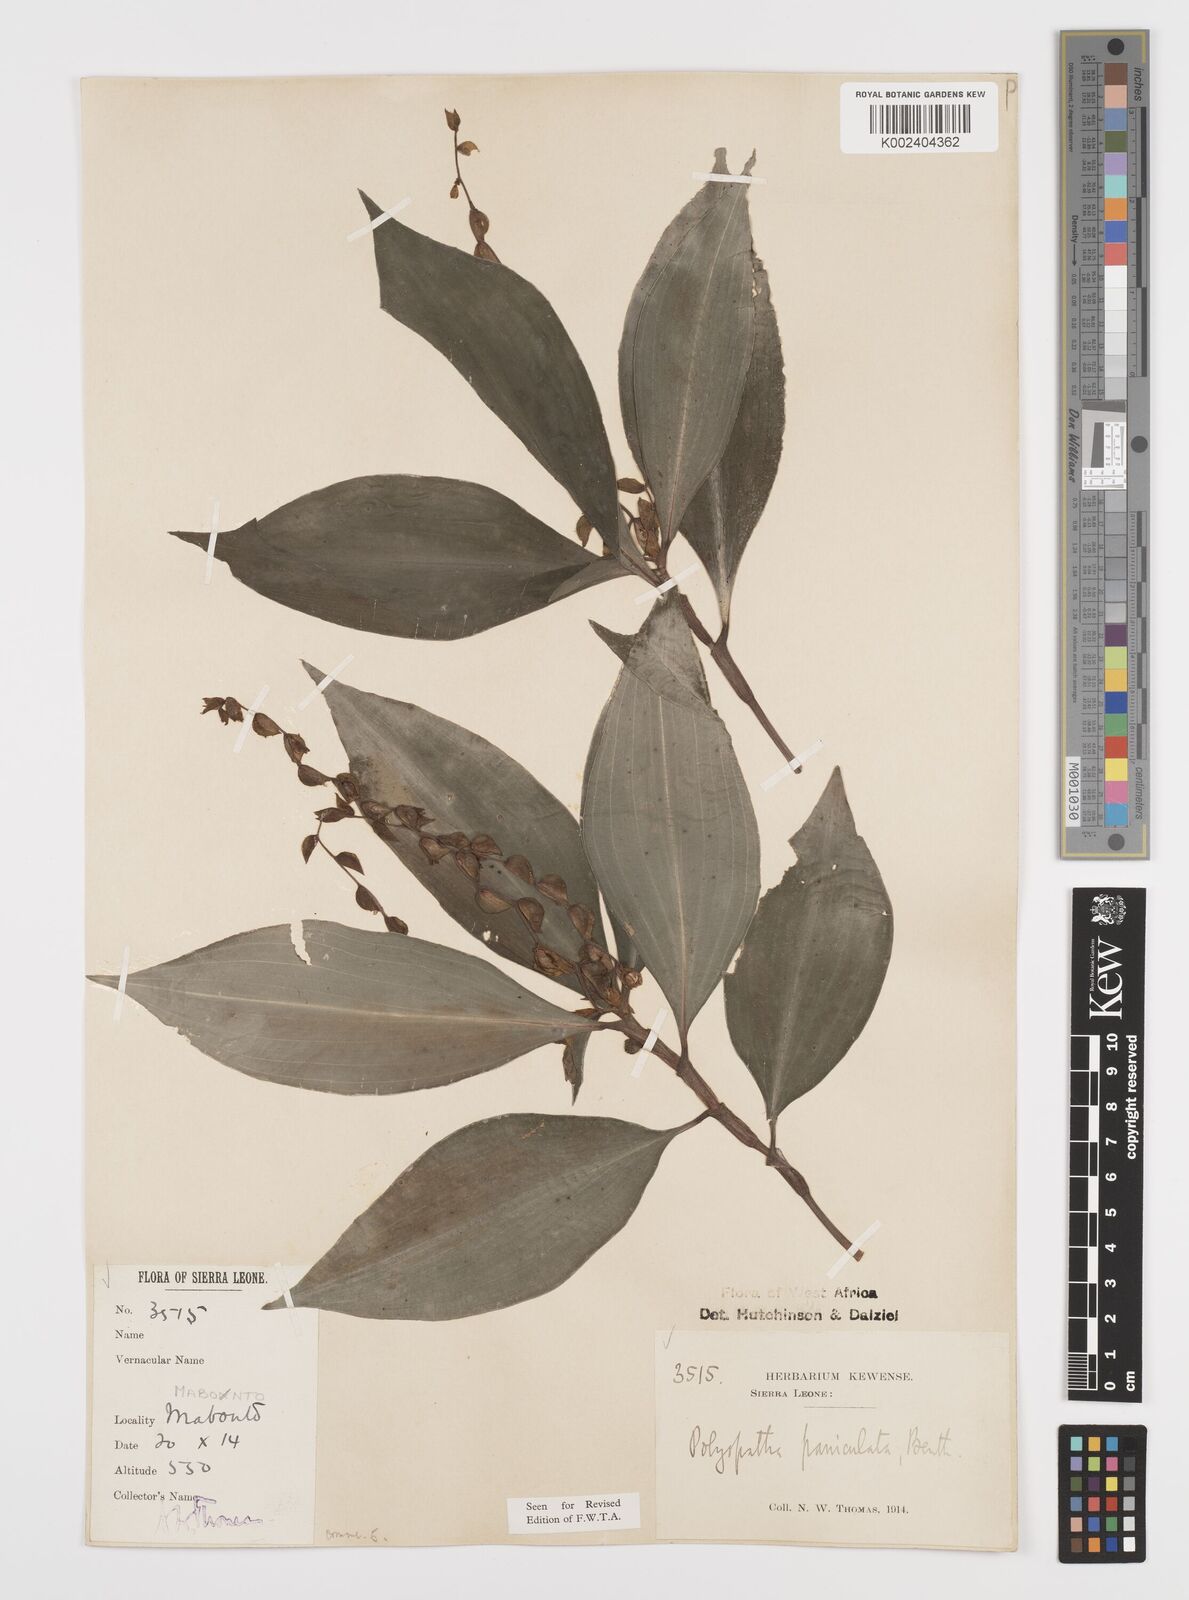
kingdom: Plantae
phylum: Tracheophyta
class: Liliopsida
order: Commelinales
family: Commelinaceae
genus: Polyspatha
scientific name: Polyspatha paniculata
